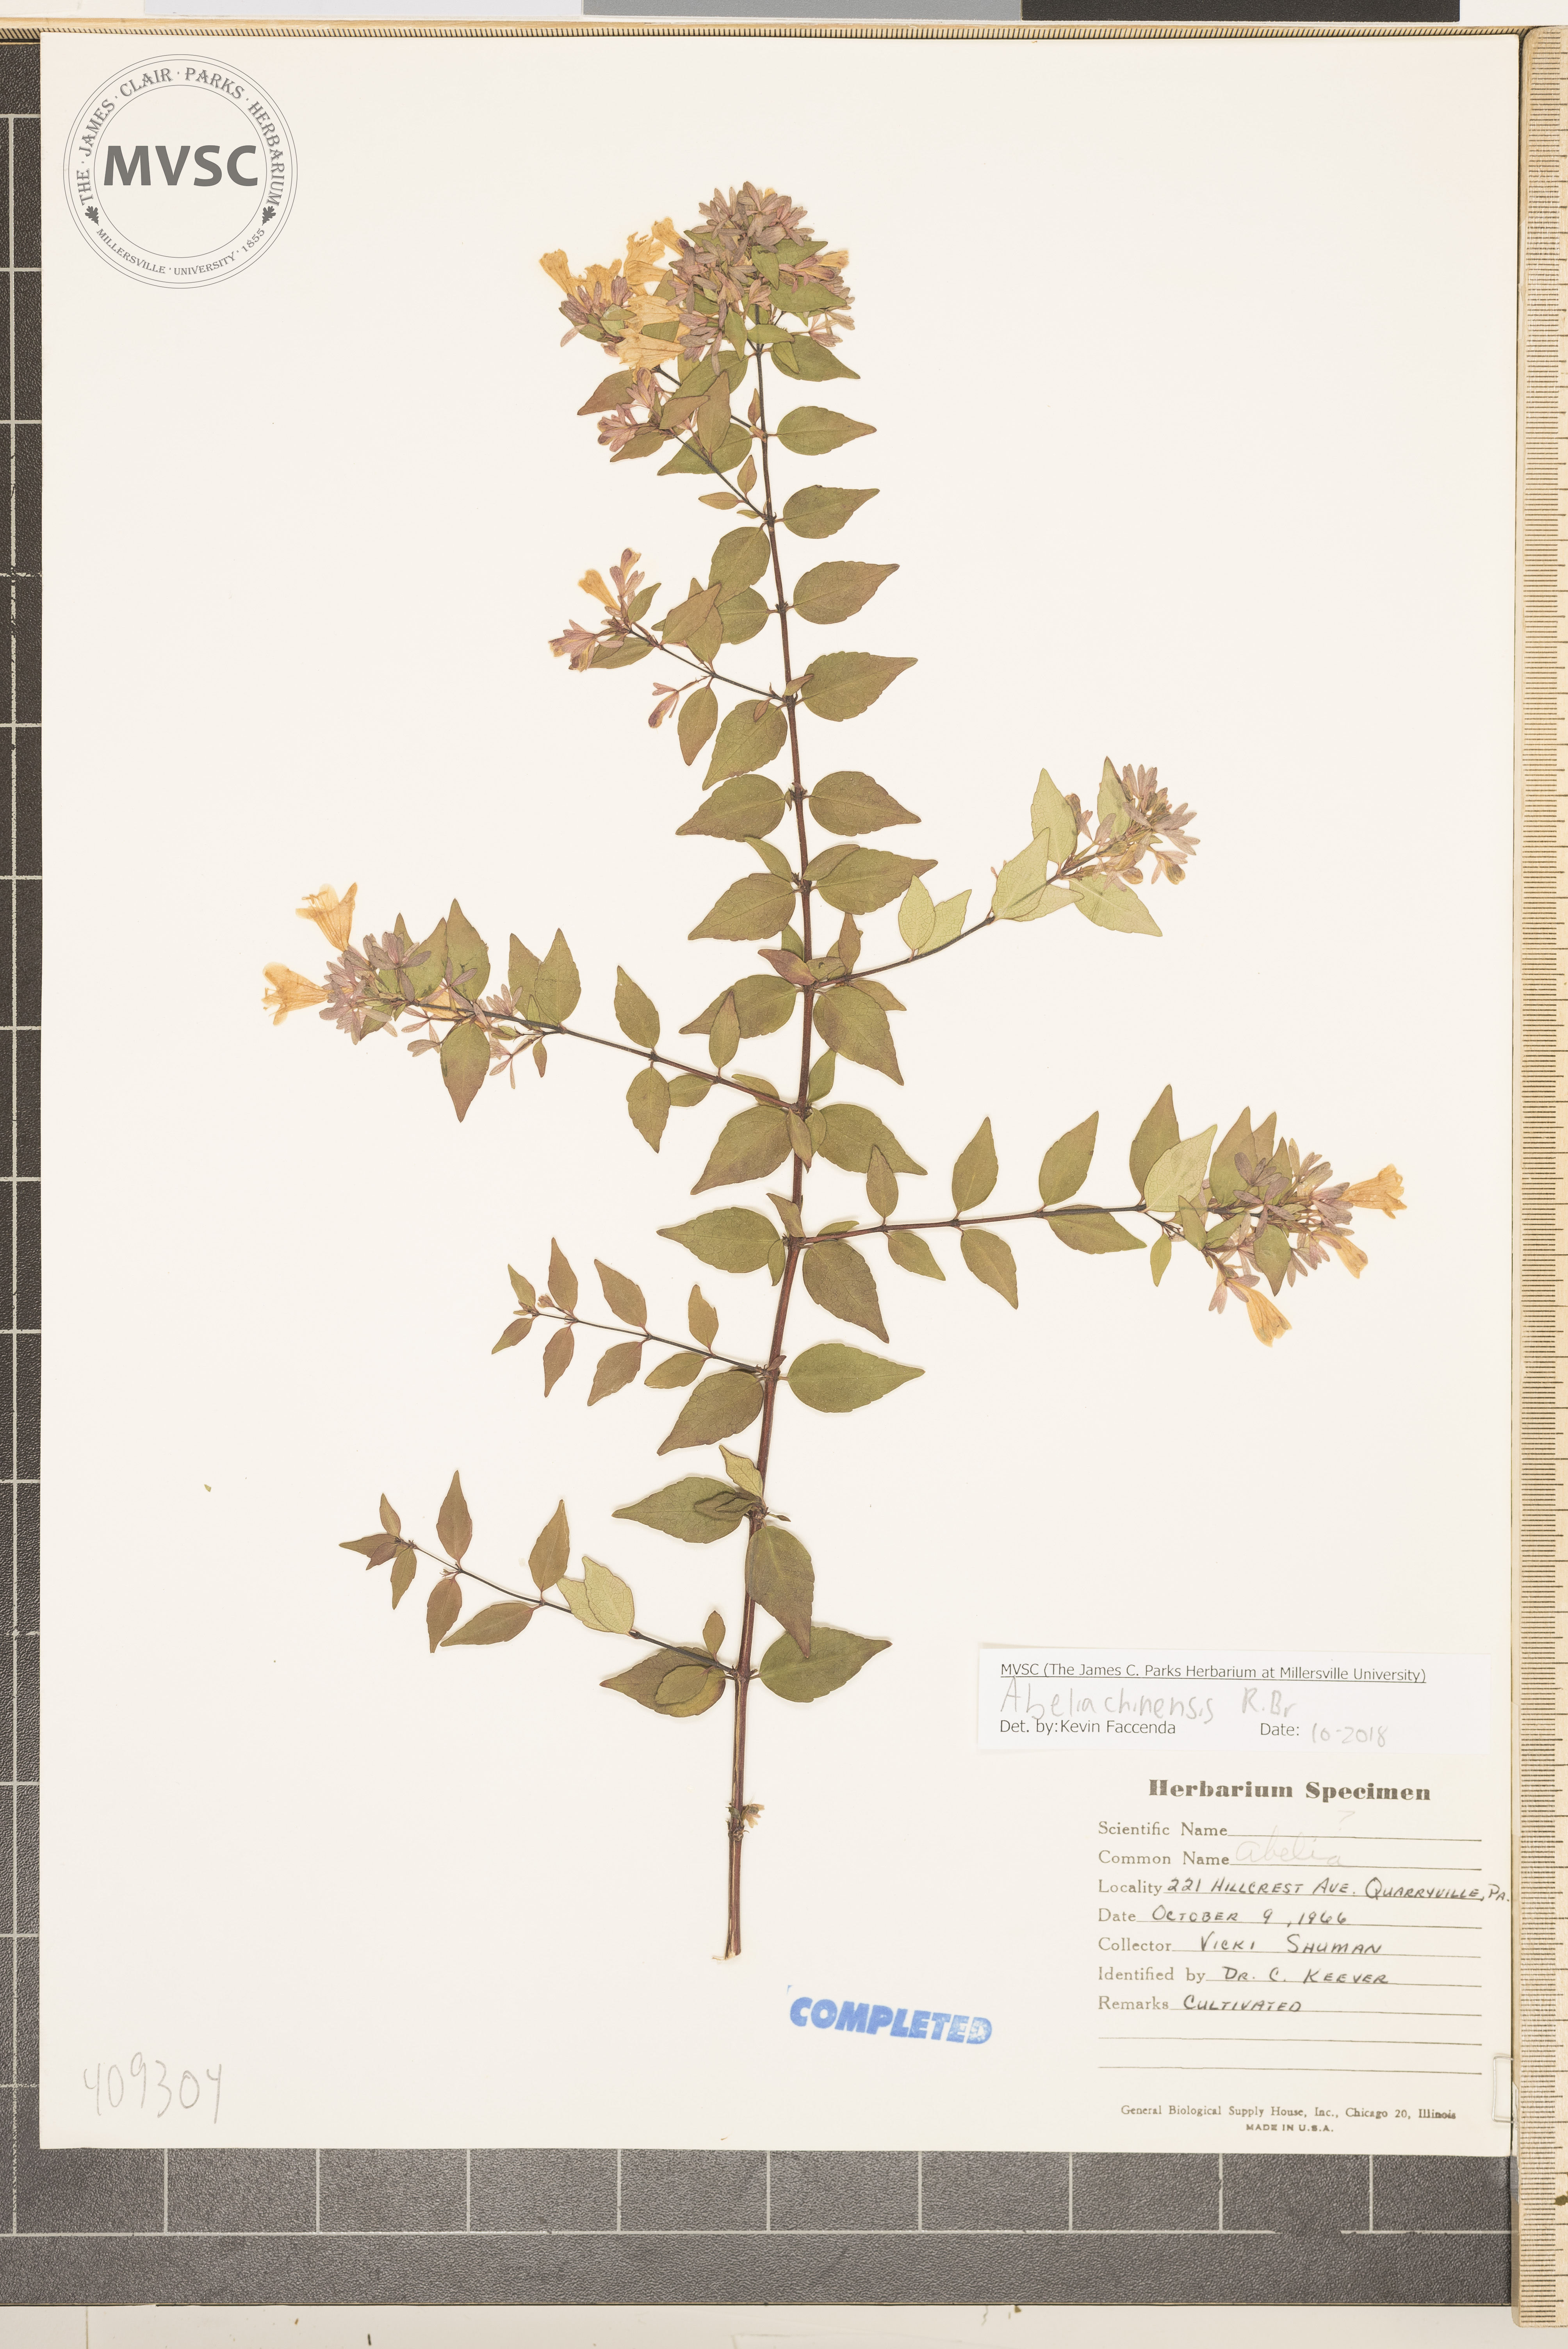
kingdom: Plantae
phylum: Tracheophyta
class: Magnoliopsida
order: Dipsacales
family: Caprifoliaceae
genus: Abelia
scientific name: Abelia chinensis
